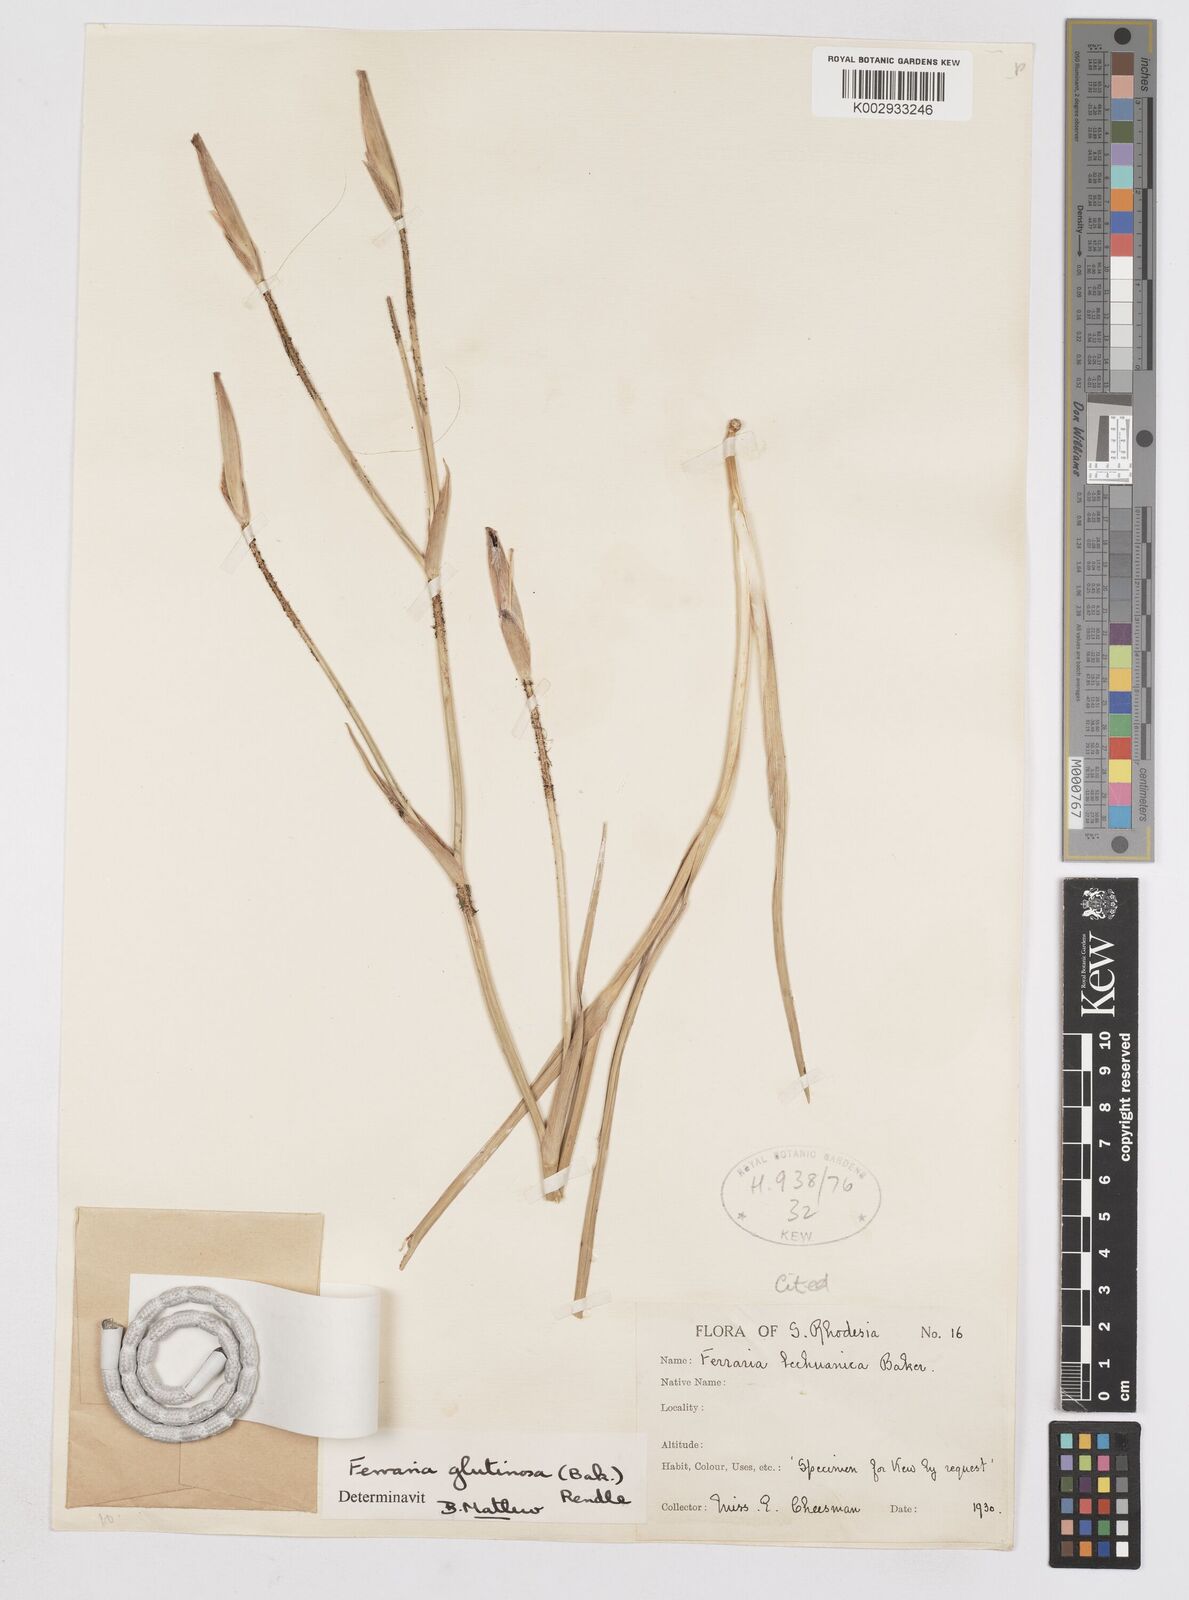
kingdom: Plantae
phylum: Tracheophyta
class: Liliopsida
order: Asparagales
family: Iridaceae
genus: Ferraria
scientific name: Ferraria glutinosa
